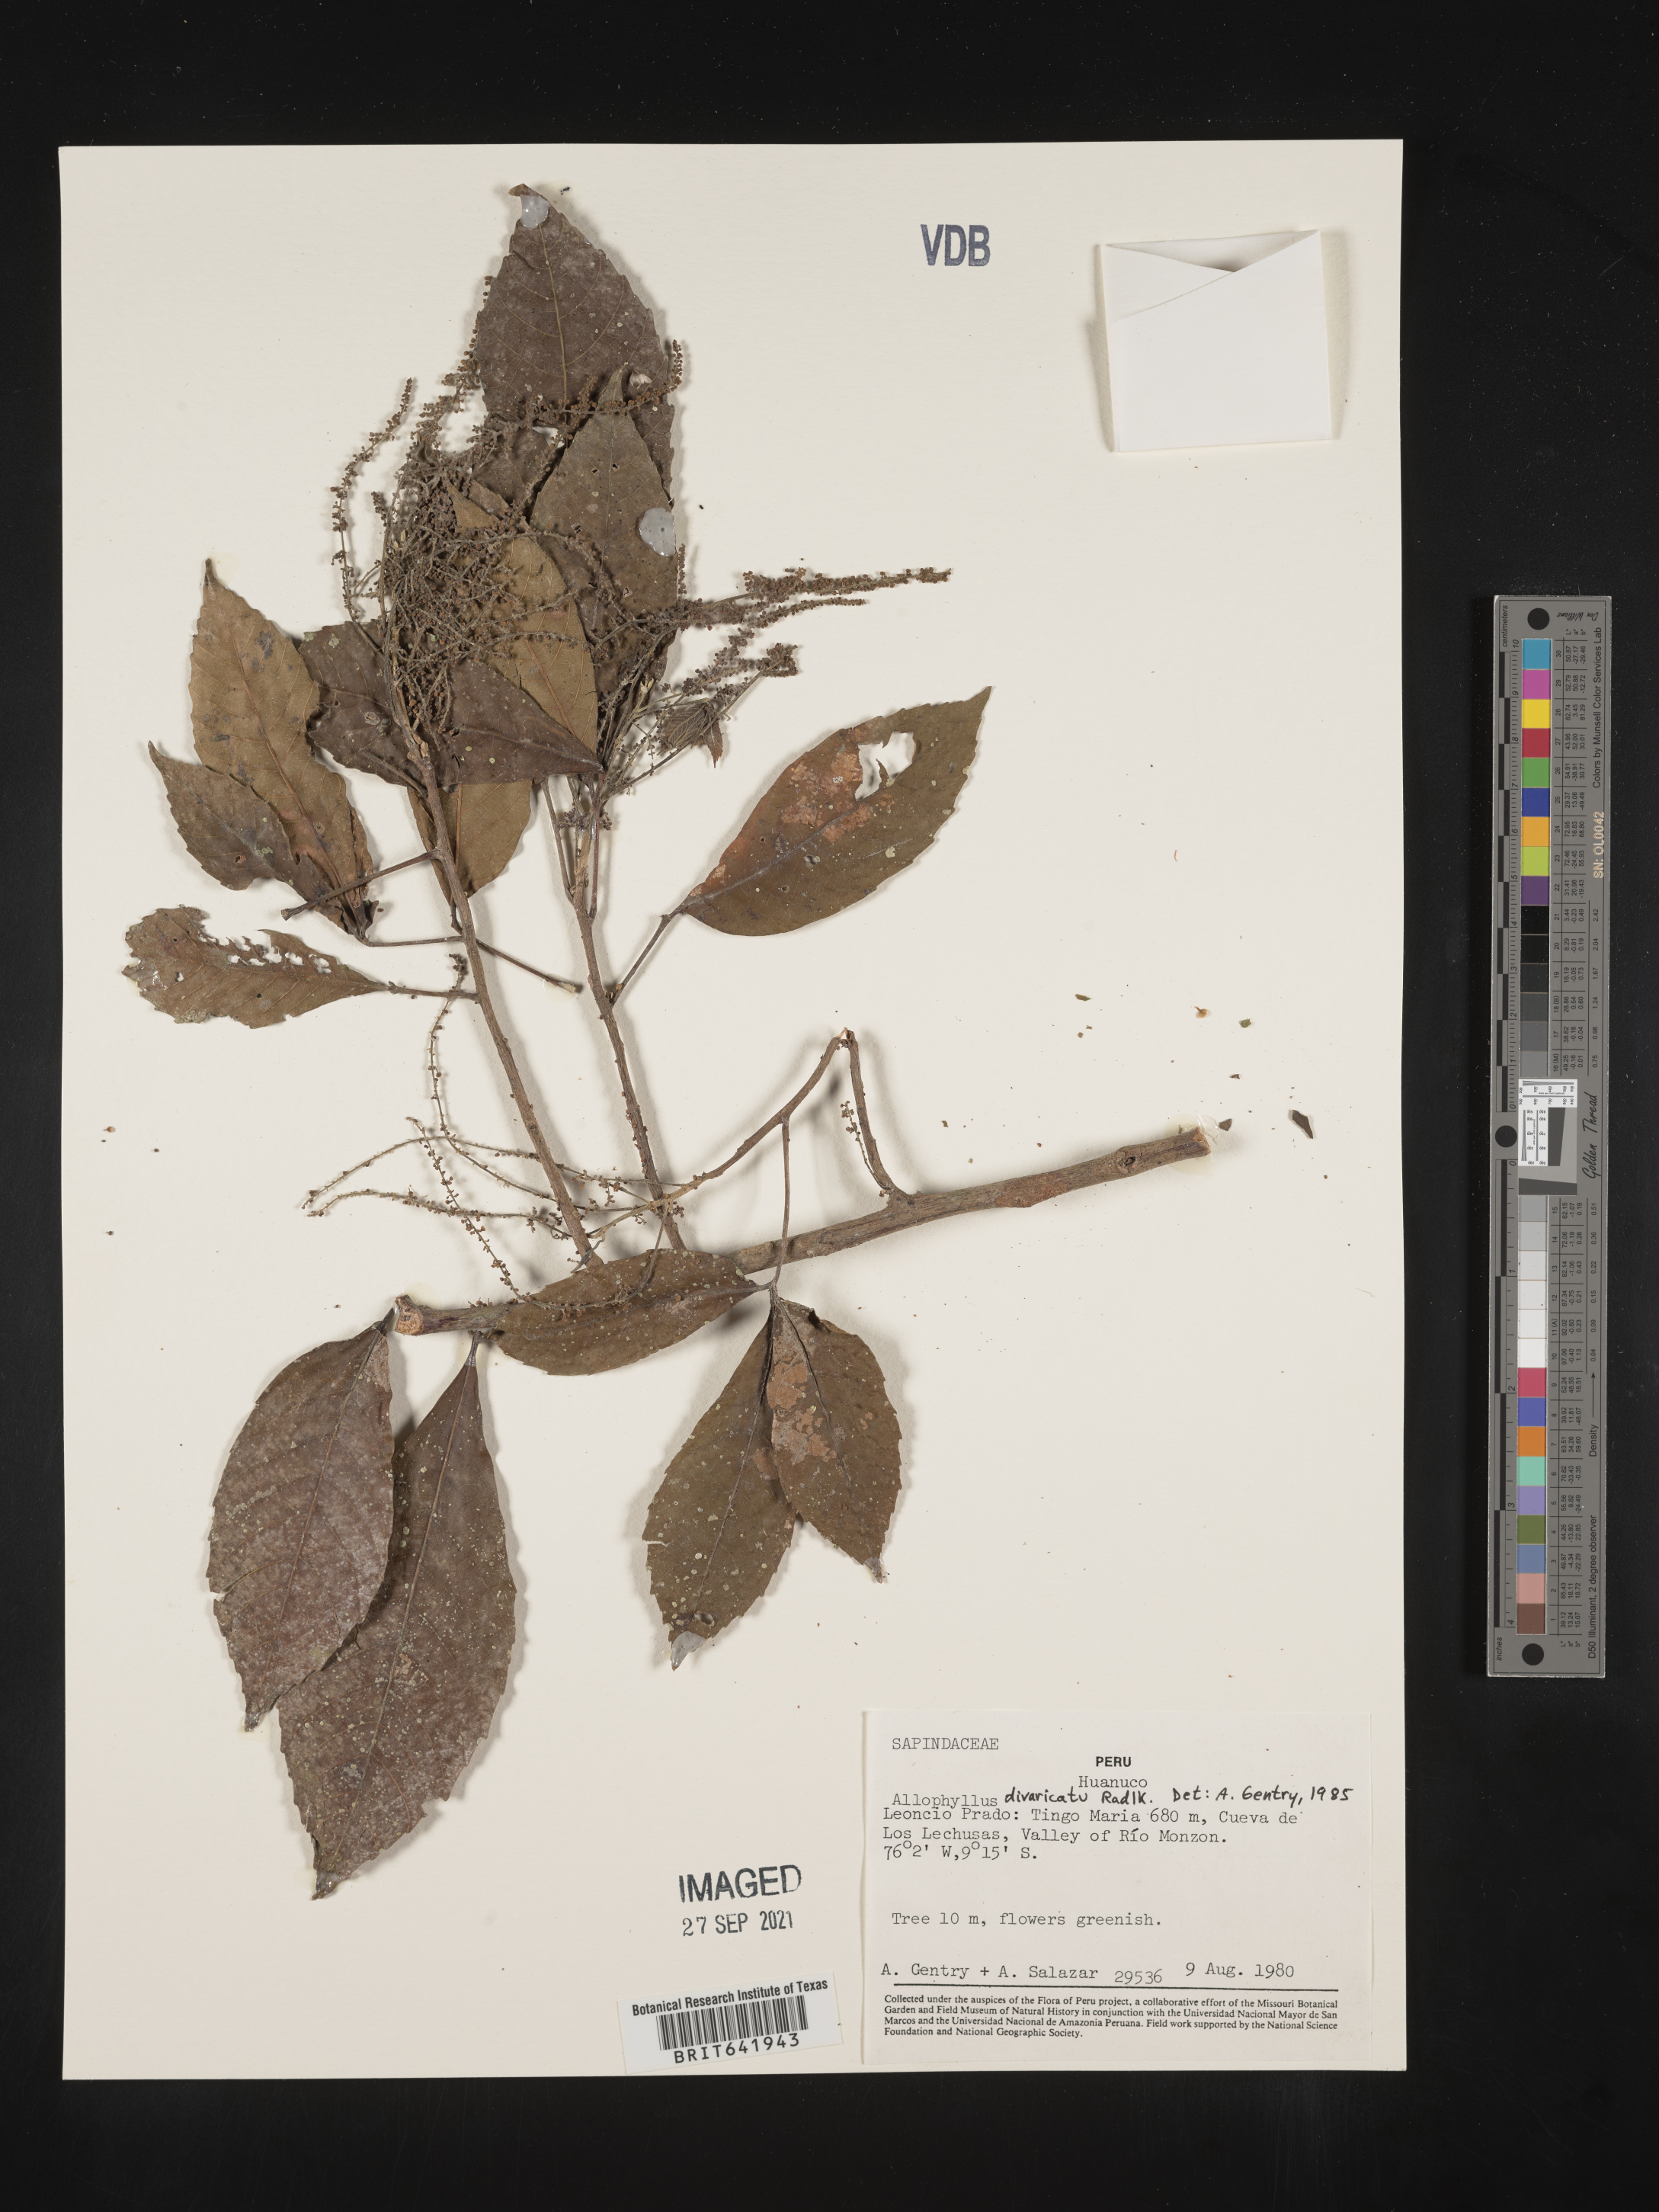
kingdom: Plantae
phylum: Tracheophyta
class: Magnoliopsida
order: Sapindales
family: Sapindaceae
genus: Allophylus
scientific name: Allophylus
